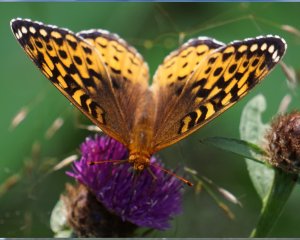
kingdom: Animalia
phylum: Arthropoda
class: Insecta
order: Lepidoptera
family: Nymphalidae
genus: Speyeria
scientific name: Speyeria cybele
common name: Great Spangled Fritillary
